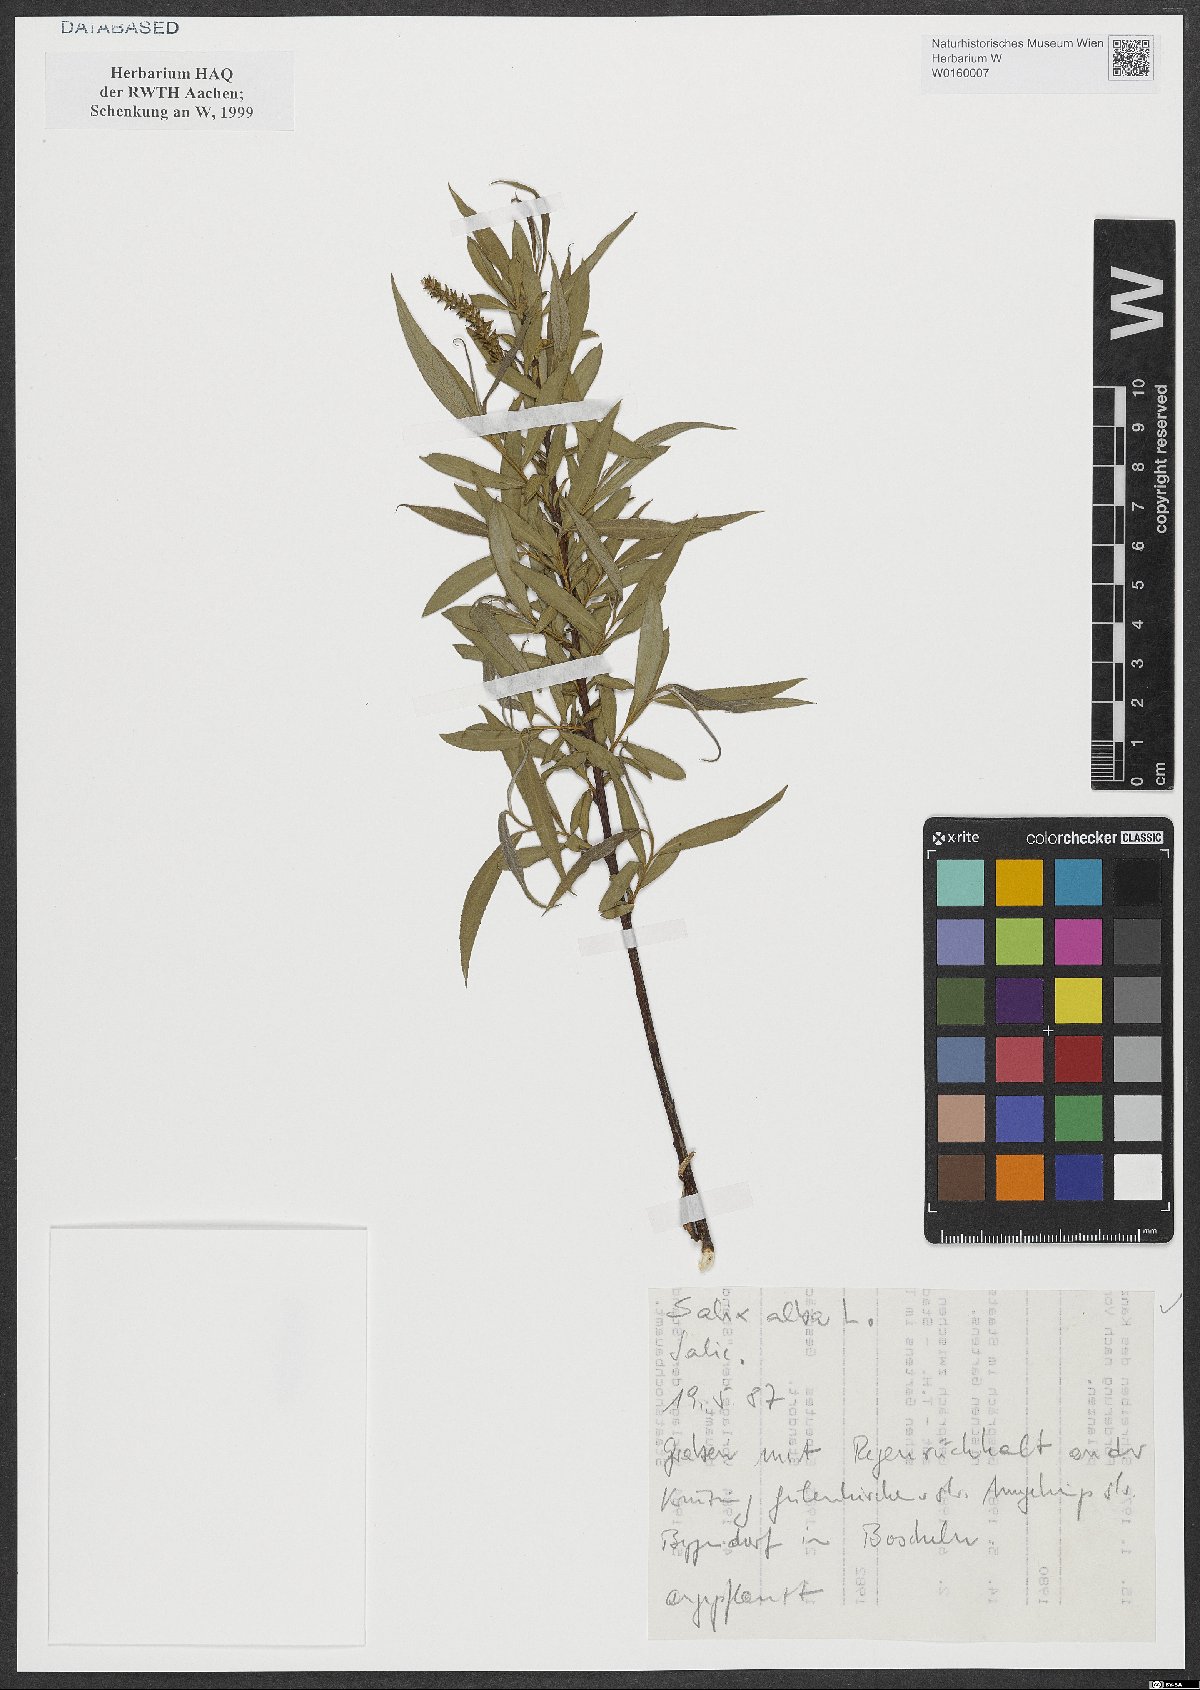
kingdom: Plantae
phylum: Tracheophyta
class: Magnoliopsida
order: Malpighiales
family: Salicaceae
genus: Salix
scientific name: Salix alba
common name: White willow
